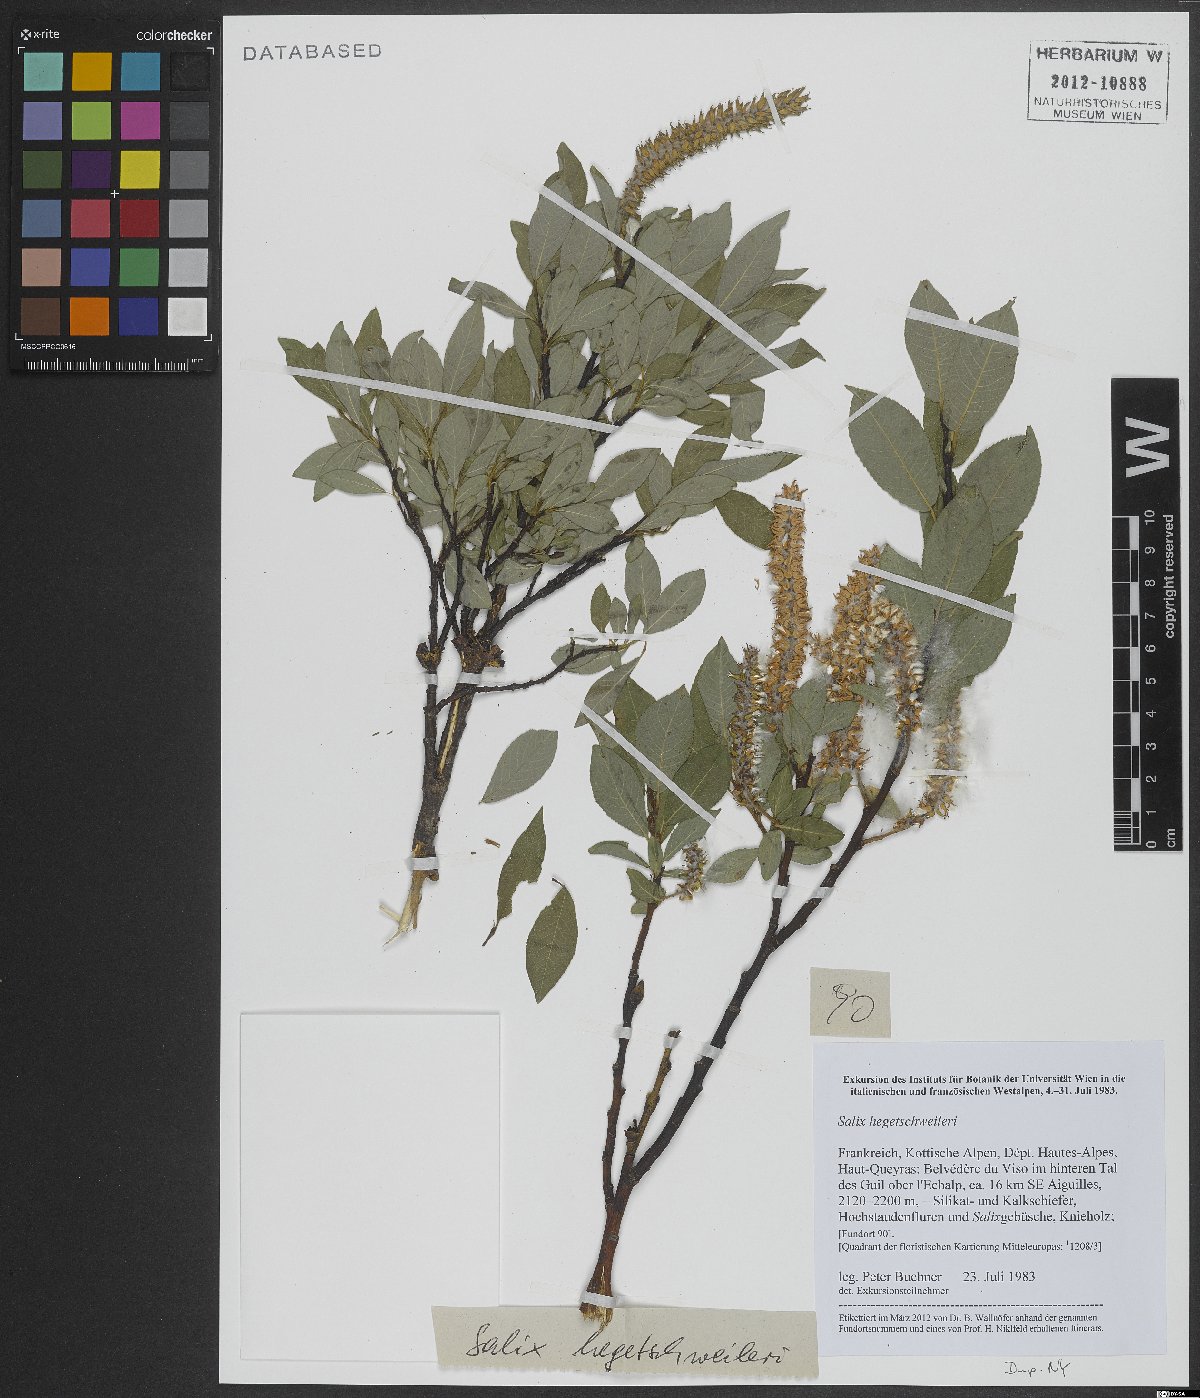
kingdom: Plantae
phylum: Tracheophyta
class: Magnoliopsida
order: Malpighiales
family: Salicaceae
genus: Salix
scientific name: Salix hegetschweileri
